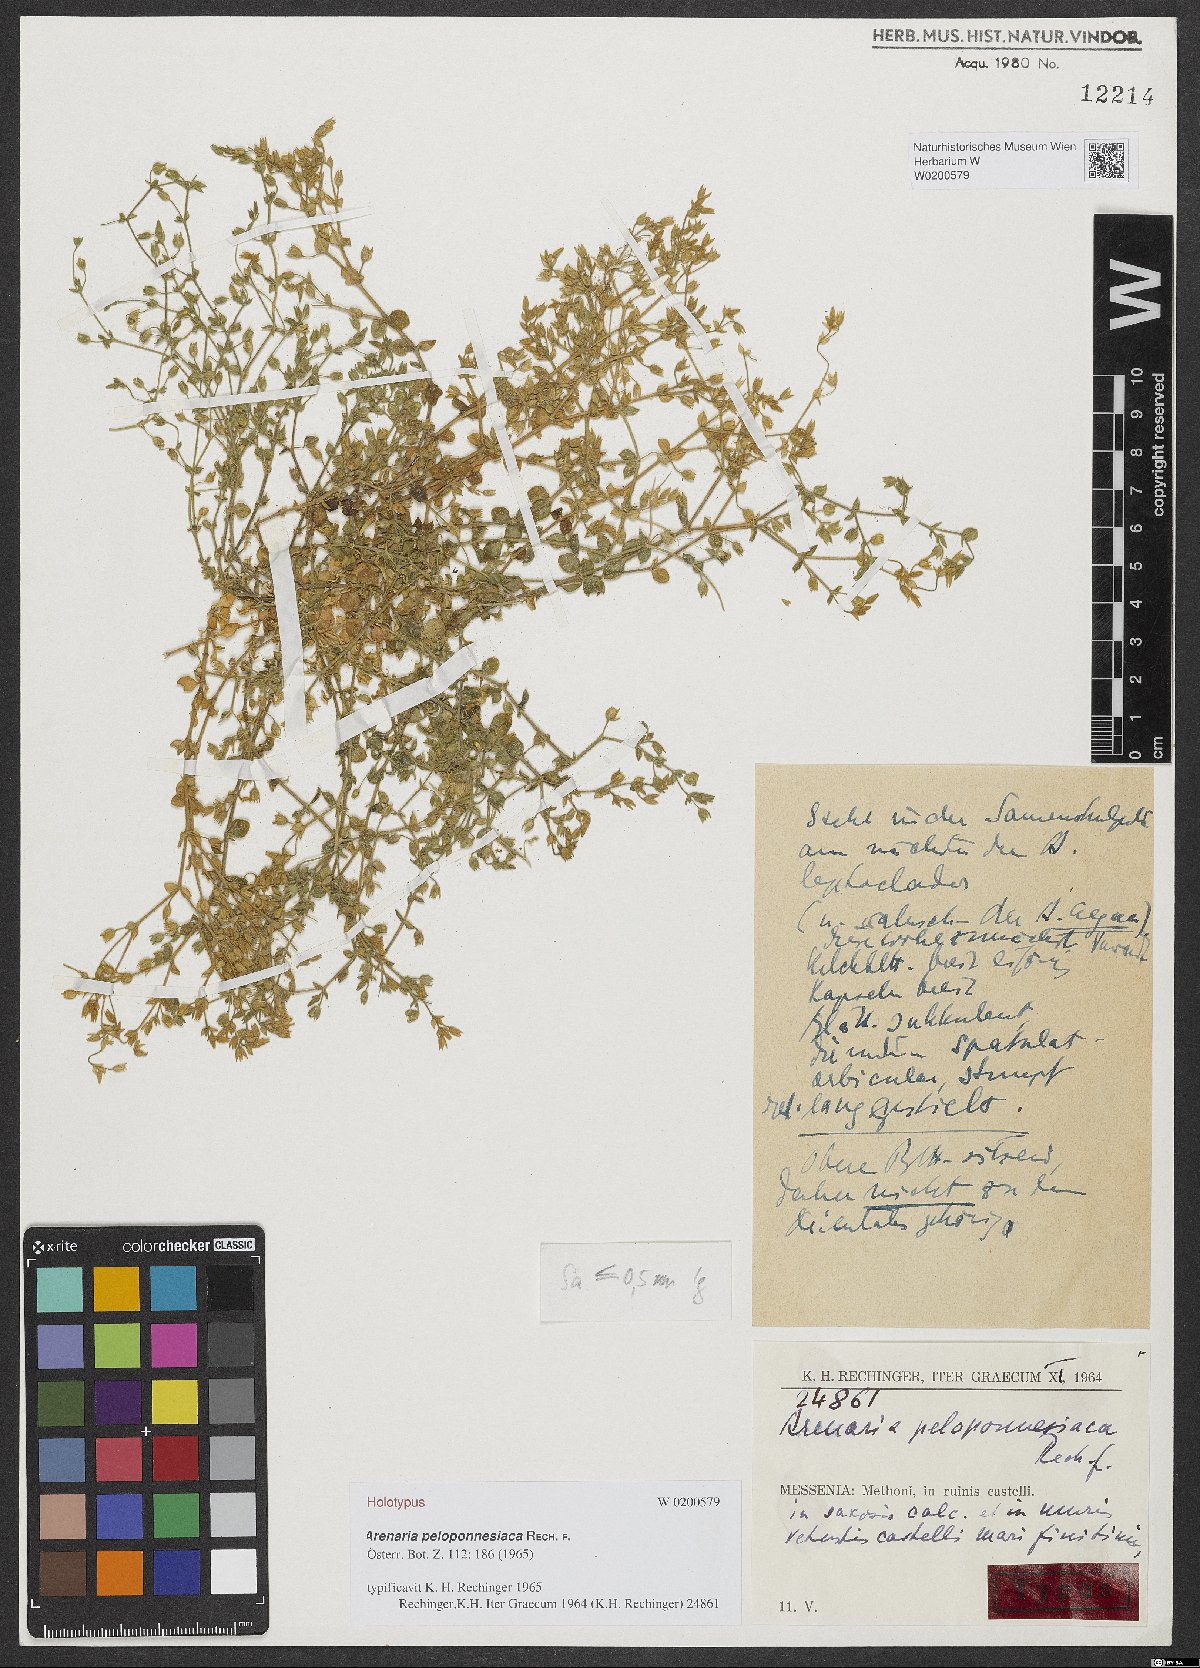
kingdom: Plantae
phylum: Tracheophyta
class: Magnoliopsida
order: Caryophyllales
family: Caryophyllaceae
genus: Arenaria
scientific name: Arenaria leptoclados
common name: Thyme-leaved sandwort
